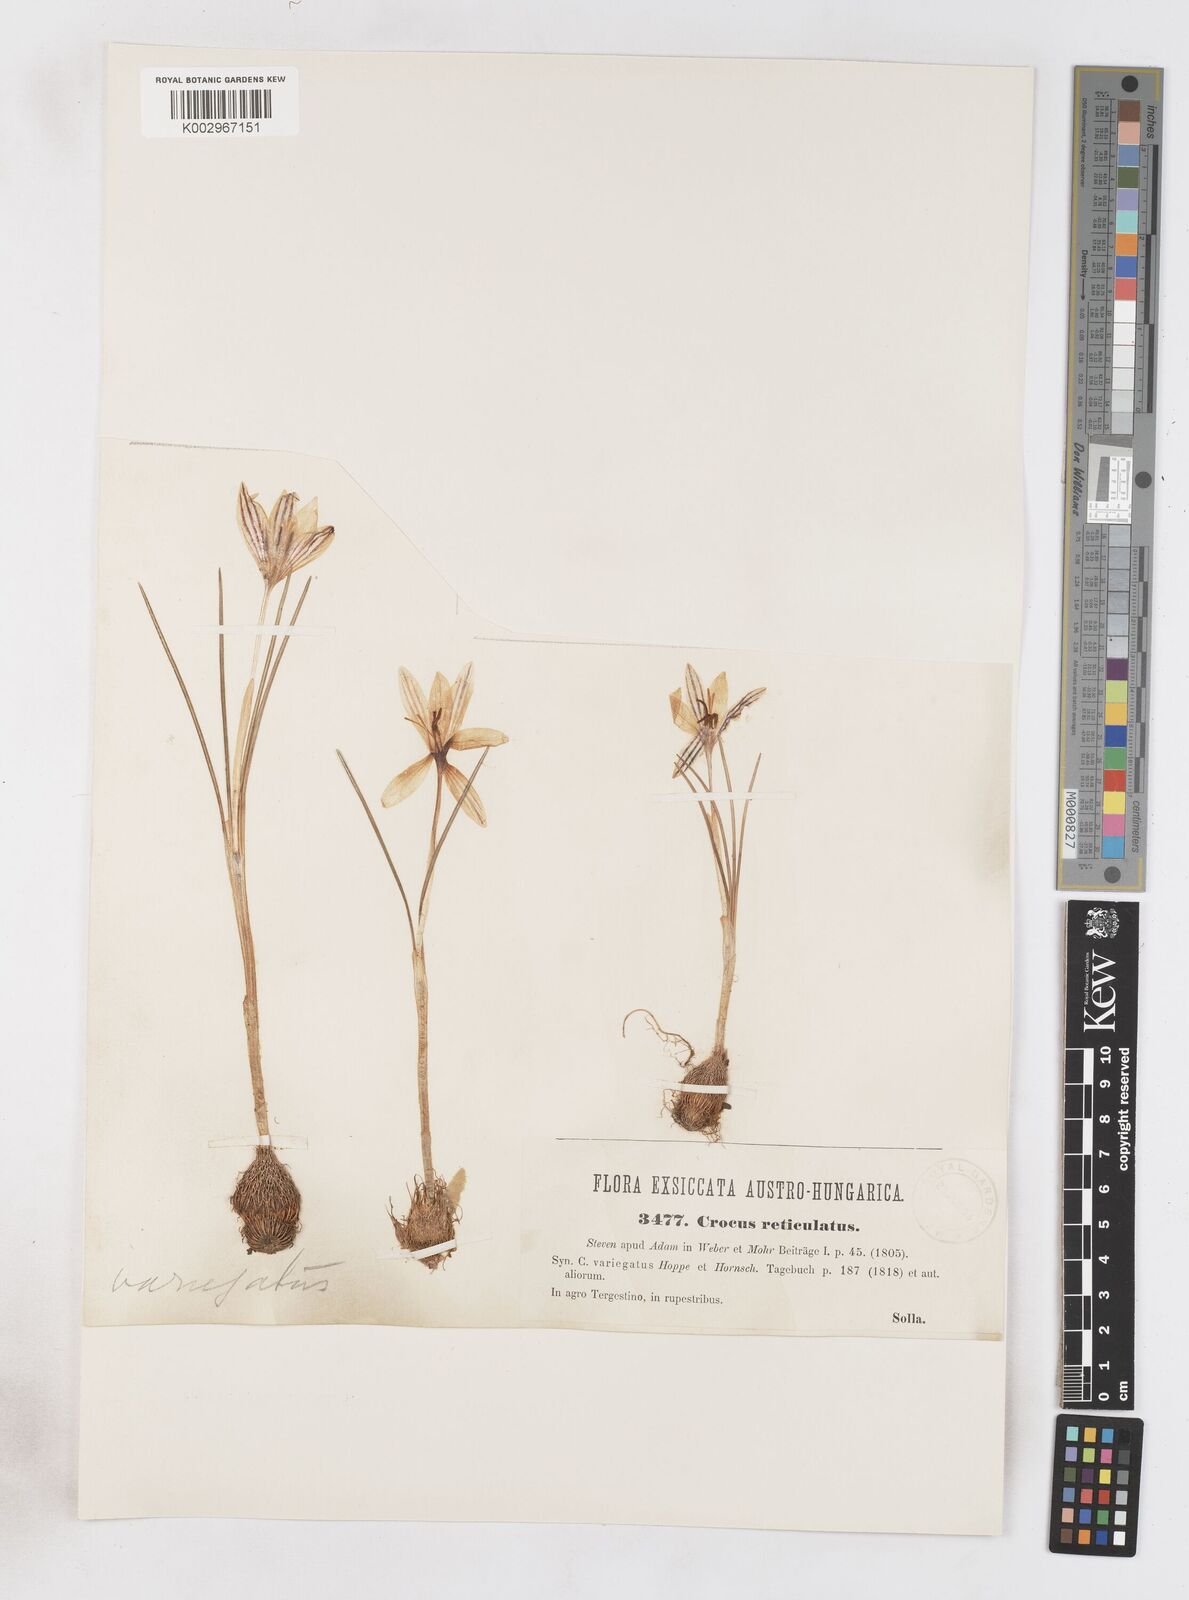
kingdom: Plantae
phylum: Tracheophyta
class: Liliopsida
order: Asparagales
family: Iridaceae
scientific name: Iridaceae
